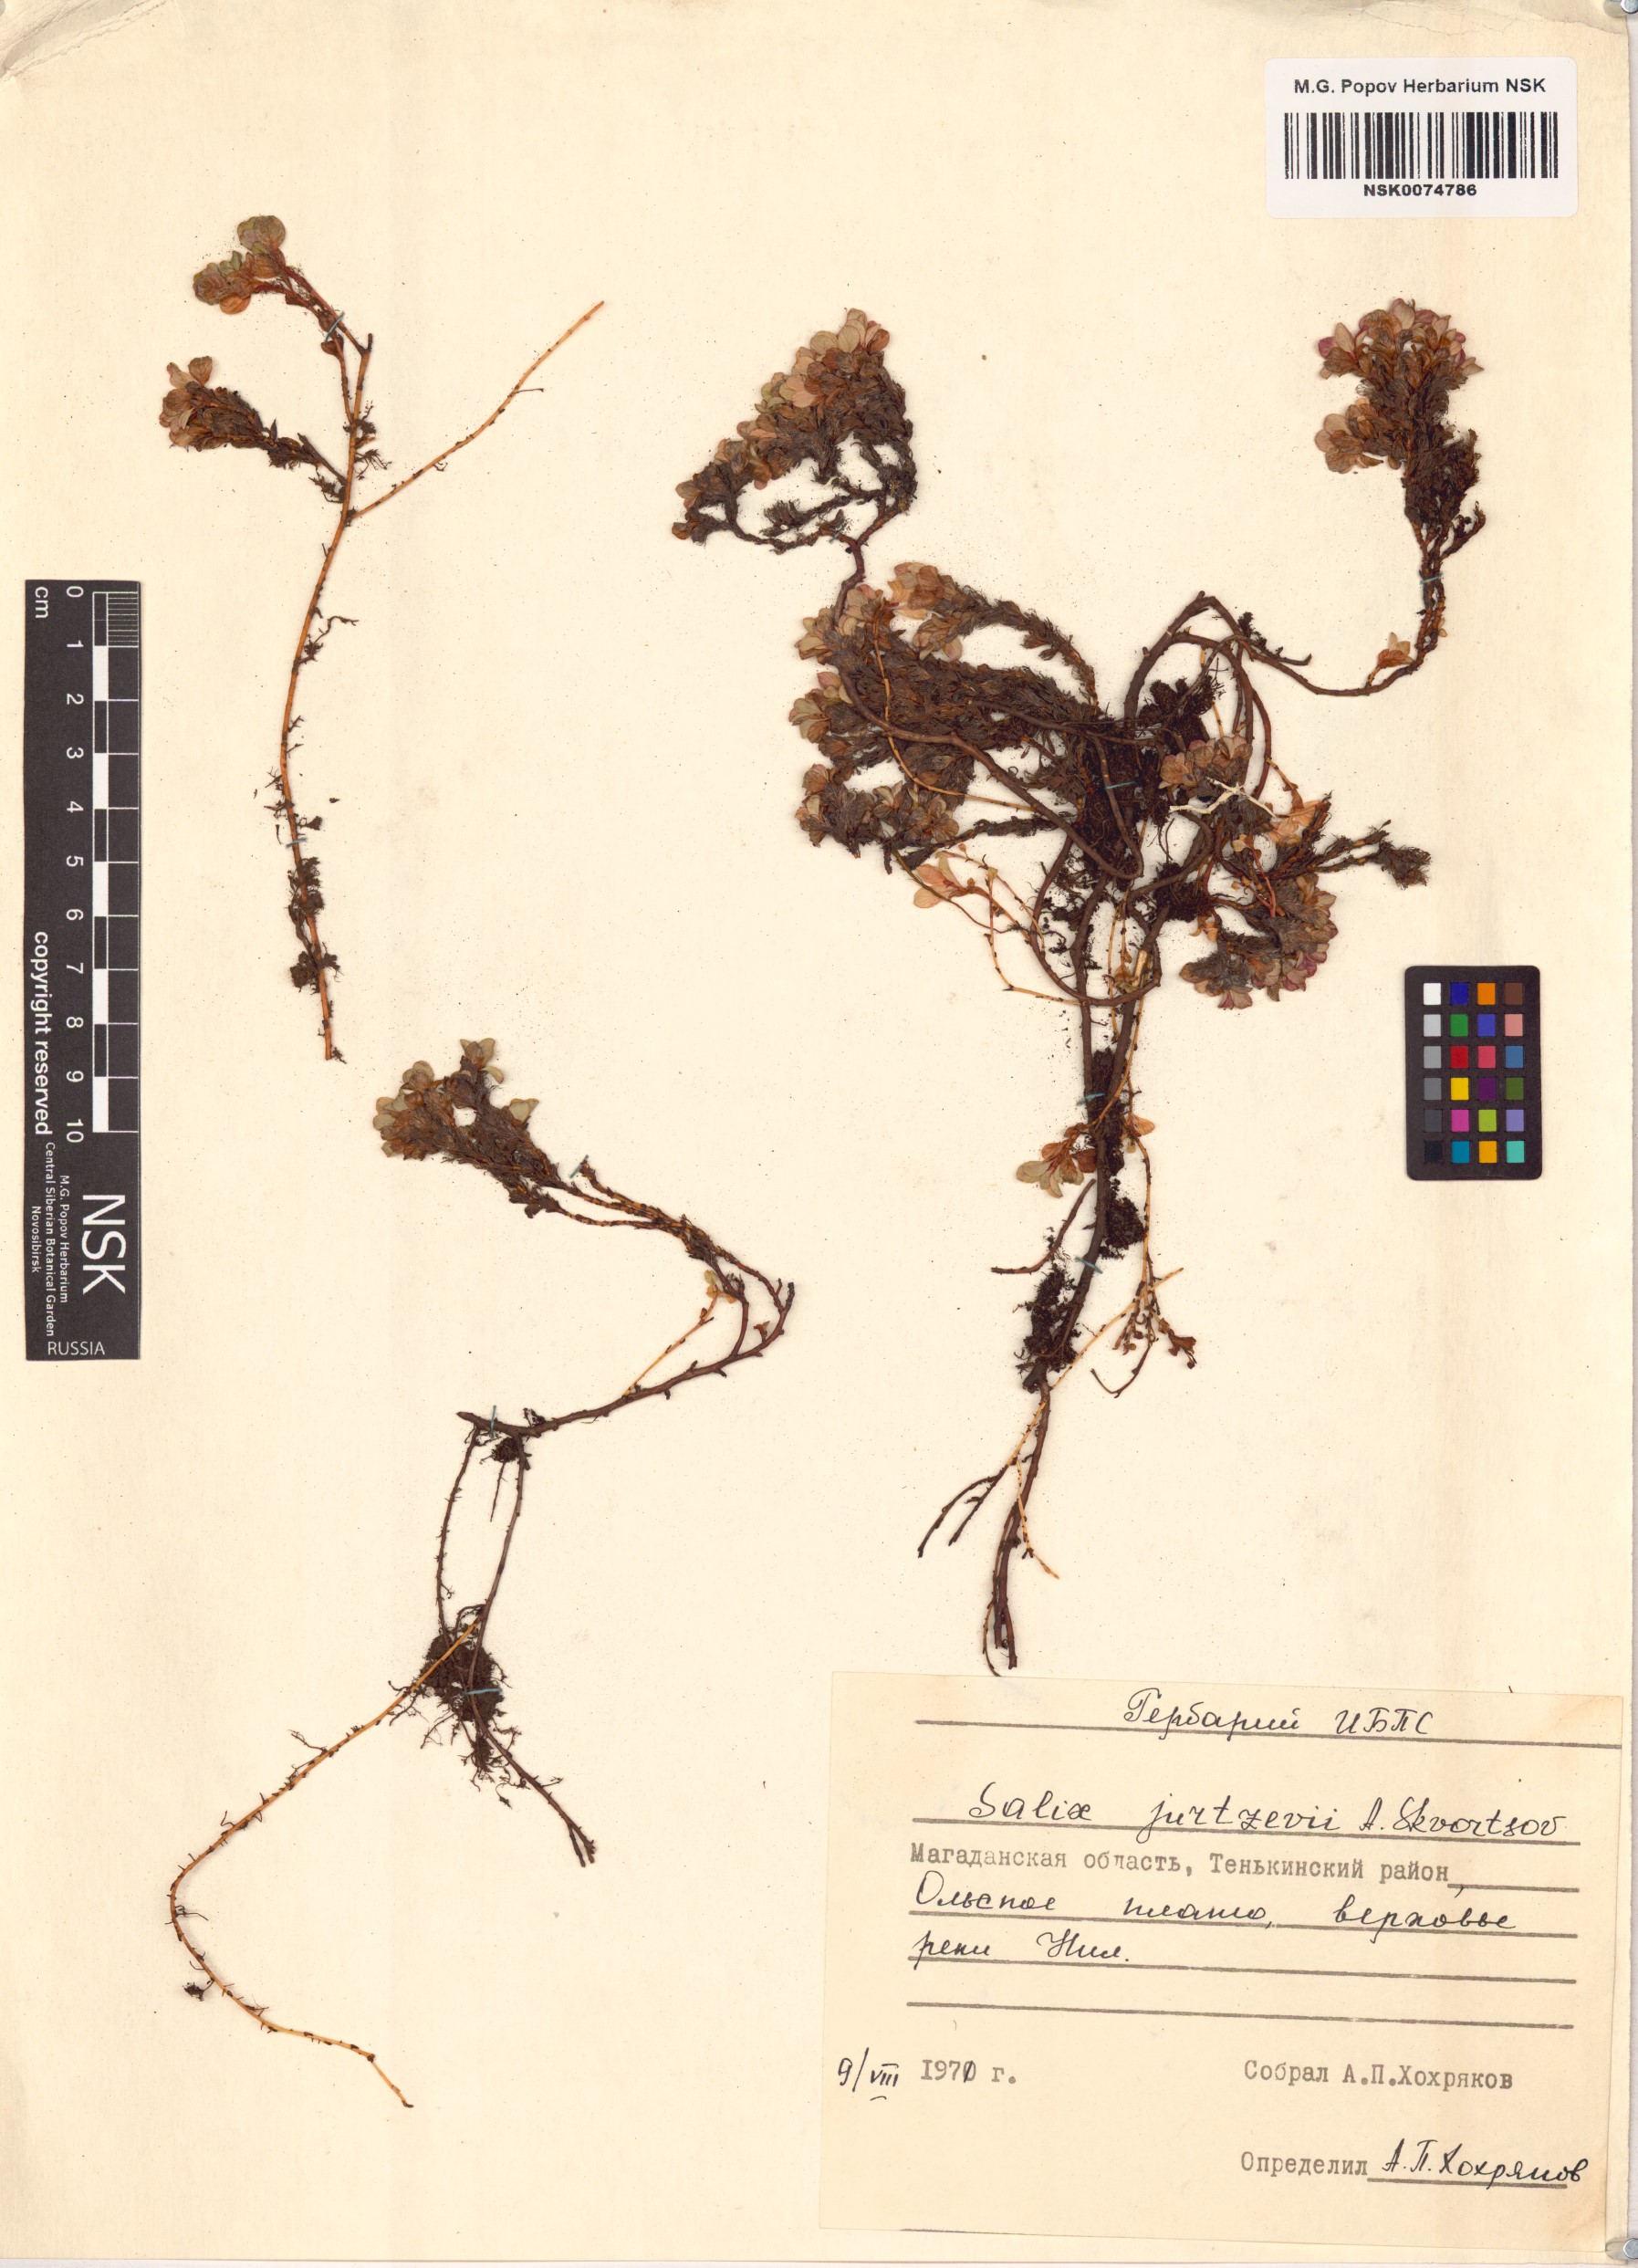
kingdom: Plantae
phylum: Tracheophyta
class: Magnoliopsida
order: Malpighiales
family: Salicaceae
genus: Salix
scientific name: Salix jurtzevii
